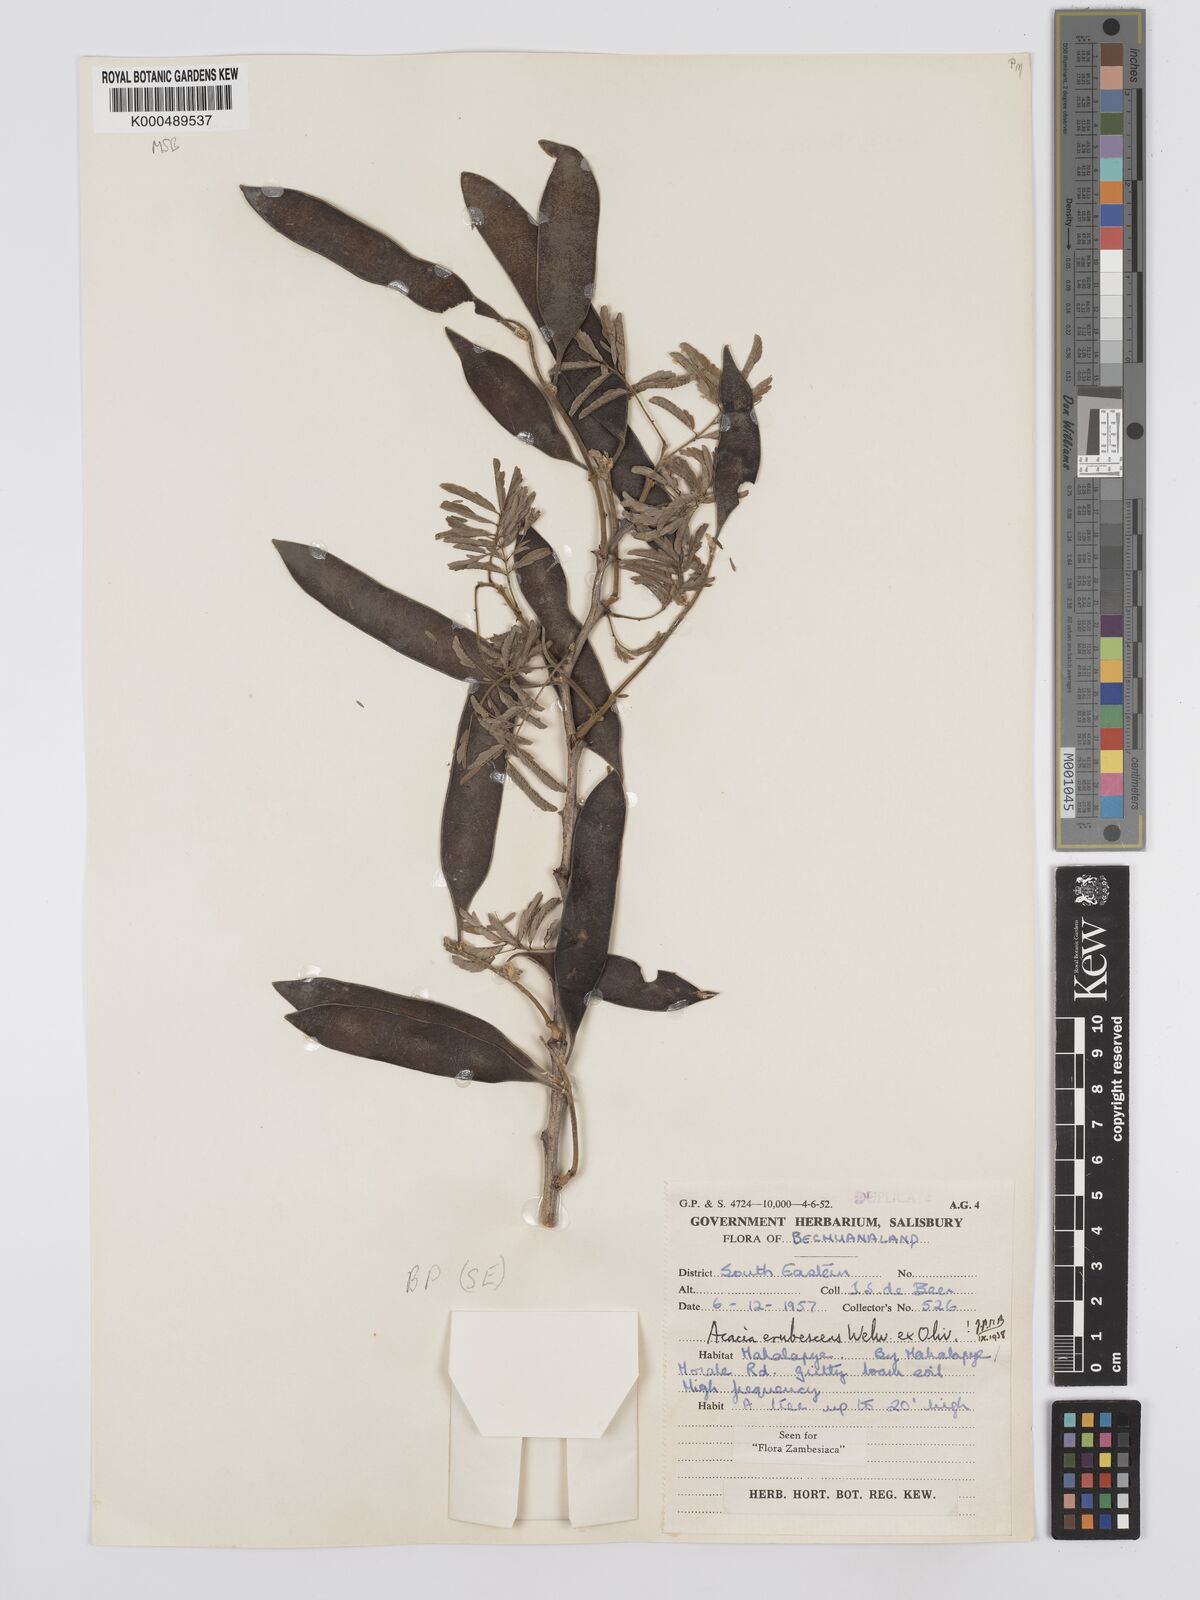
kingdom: Plantae
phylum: Tracheophyta
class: Magnoliopsida
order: Fabales
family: Fabaceae
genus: Senegalia
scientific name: Senegalia erubescens
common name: Bluethorn
